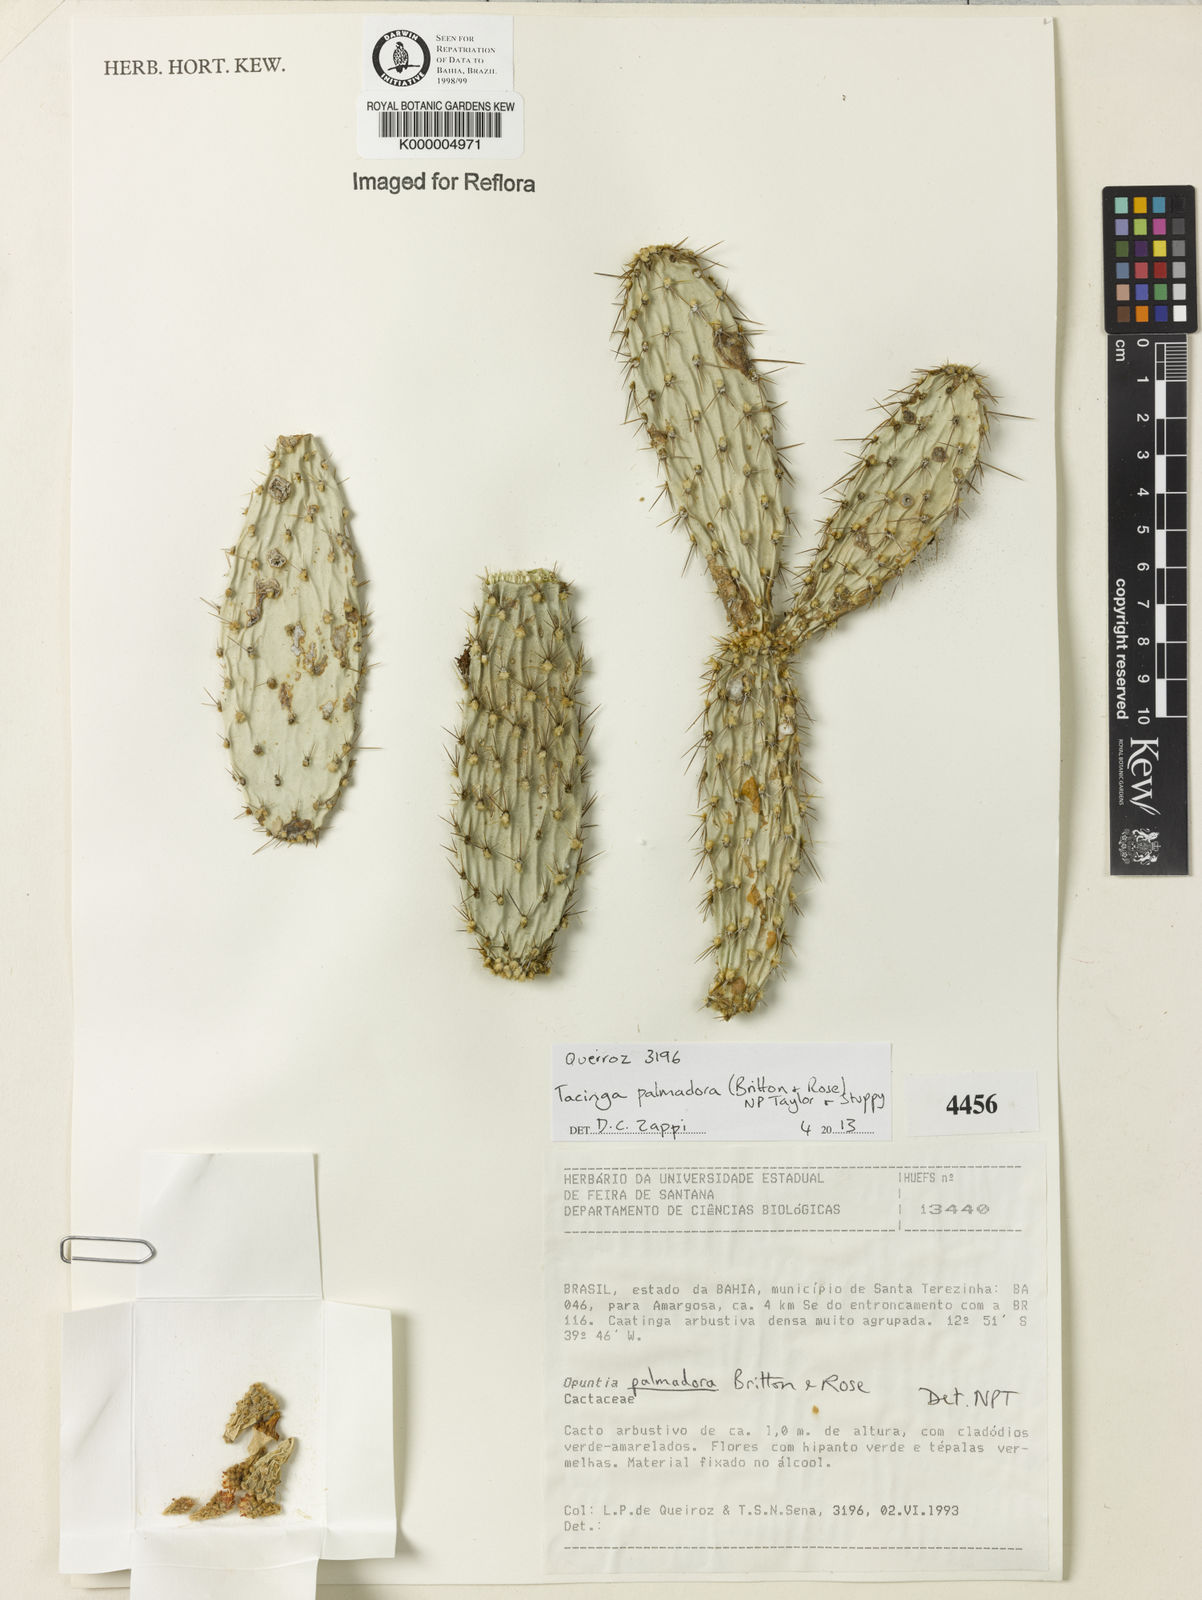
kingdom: Plantae
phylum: Tracheophyta
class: Magnoliopsida
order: Caryophyllales
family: Cactaceae
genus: Tacinga
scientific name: Tacinga palmadora
